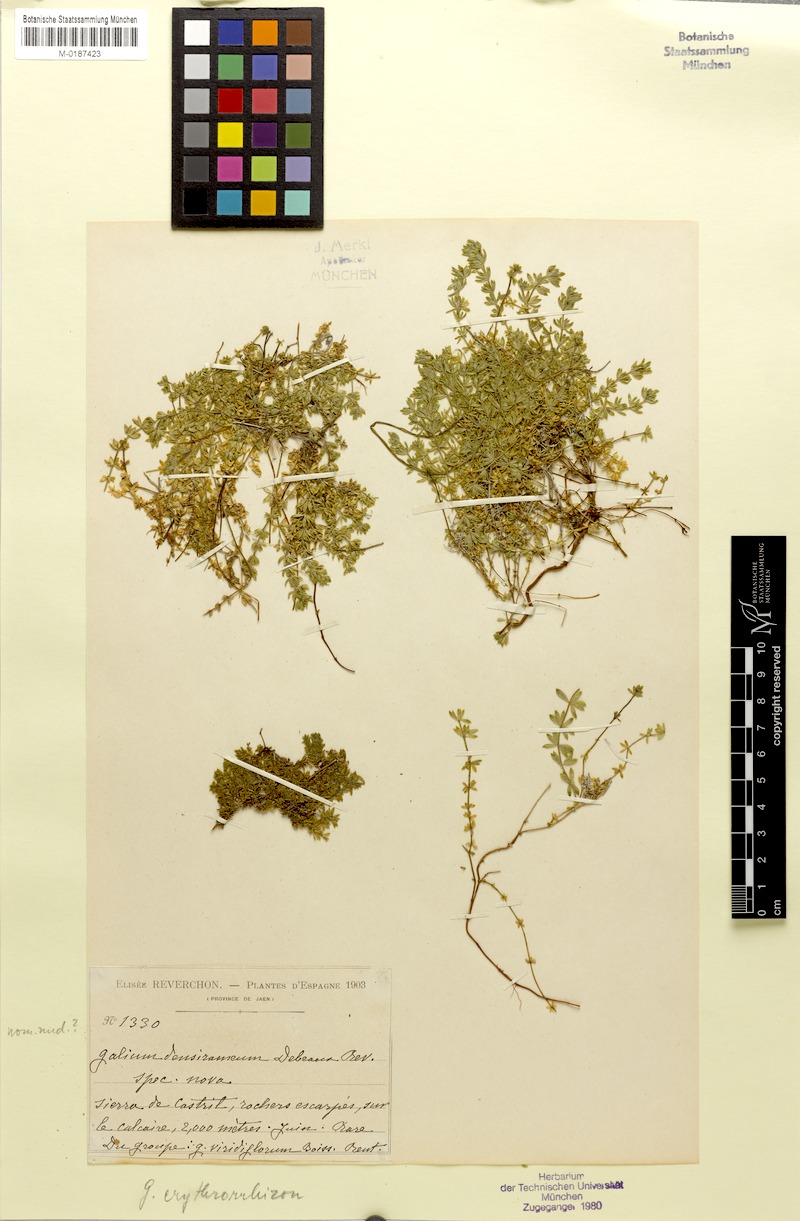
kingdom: Plantae
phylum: Tracheophyta
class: Magnoliopsida
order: Gentianales
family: Rubiaceae
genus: Galium
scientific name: Galium erythrorrhizon
